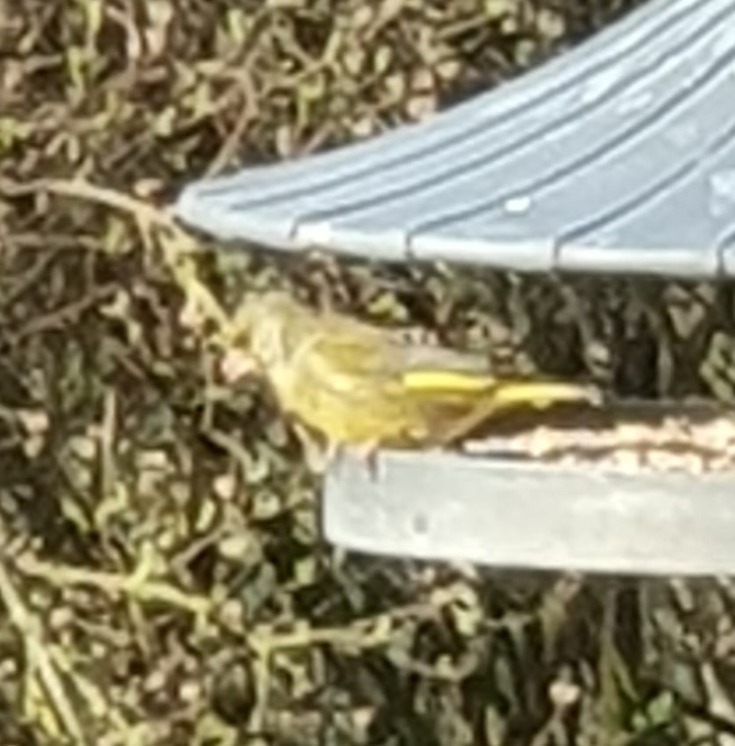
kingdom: Plantae
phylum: Tracheophyta
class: Liliopsida
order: Poales
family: Poaceae
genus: Chloris
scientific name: Chloris chloris
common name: Grønirisk
